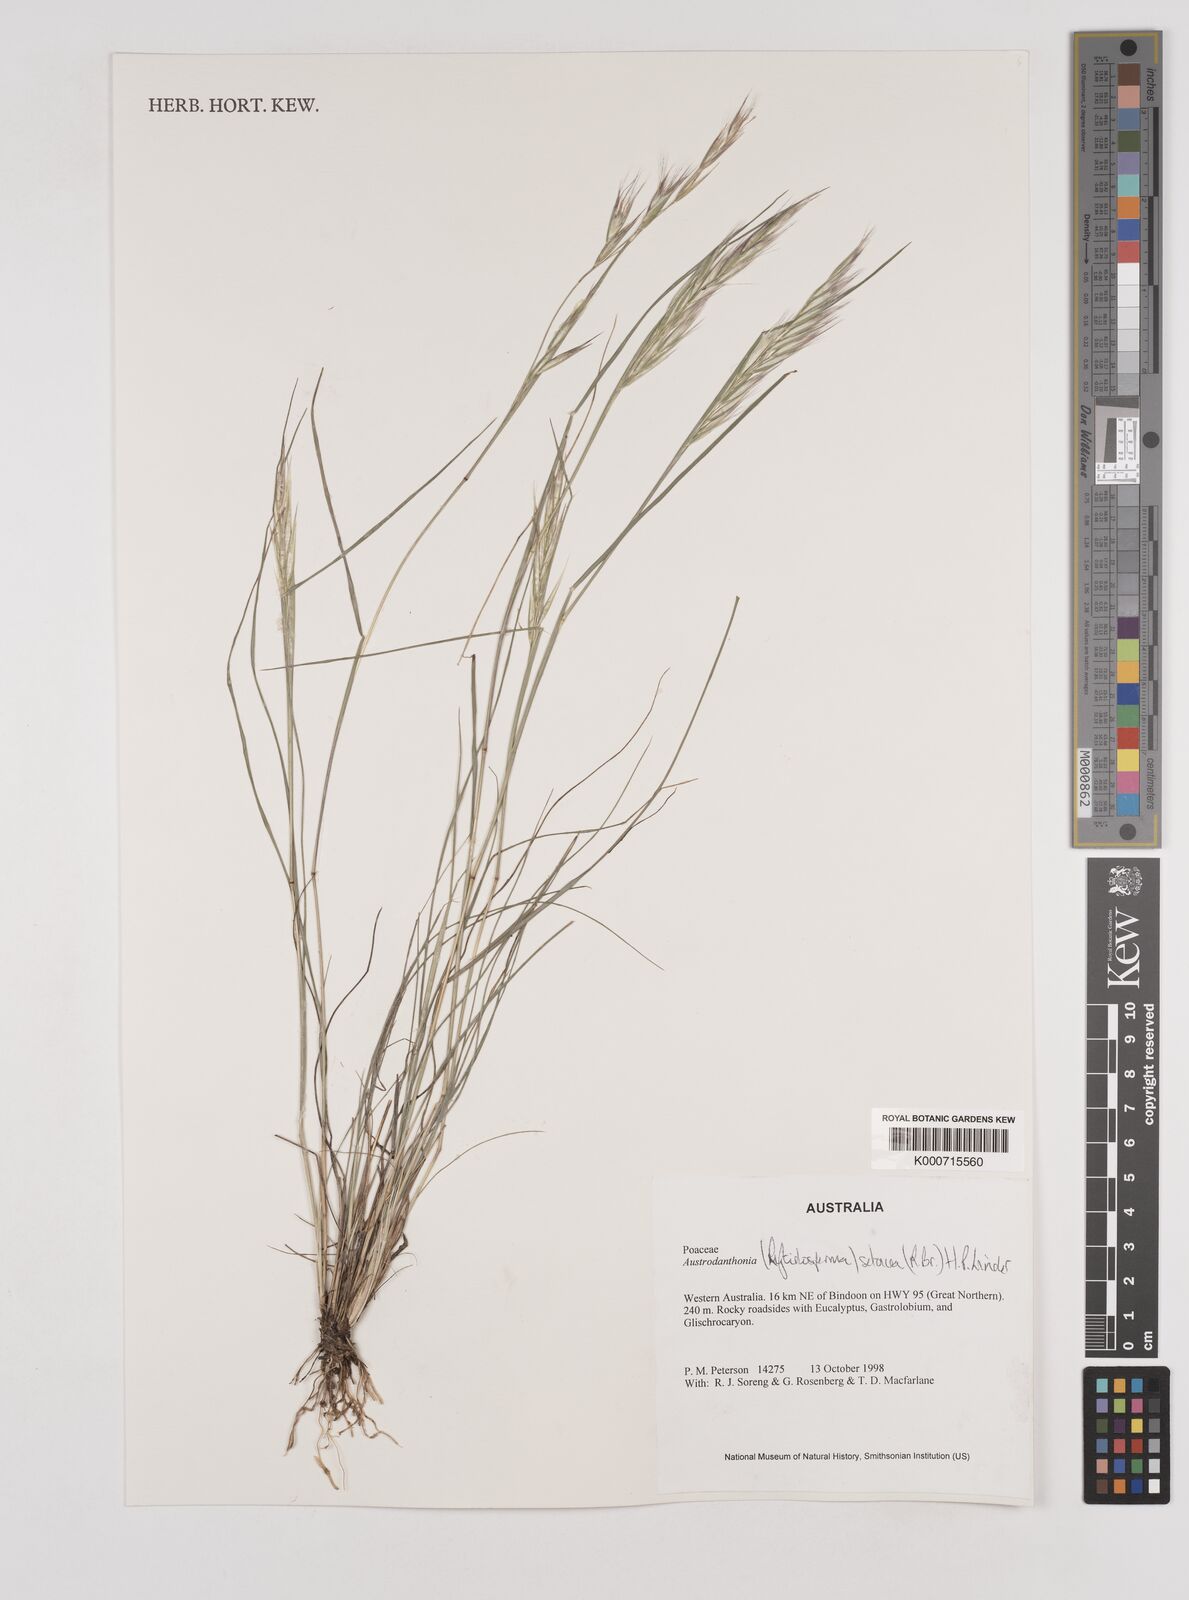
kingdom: Plantae
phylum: Tracheophyta
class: Liliopsida
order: Poales
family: Poaceae
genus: Rytidosperma
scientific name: Rytidosperma setaceum
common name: Small-flower wallaby grass
